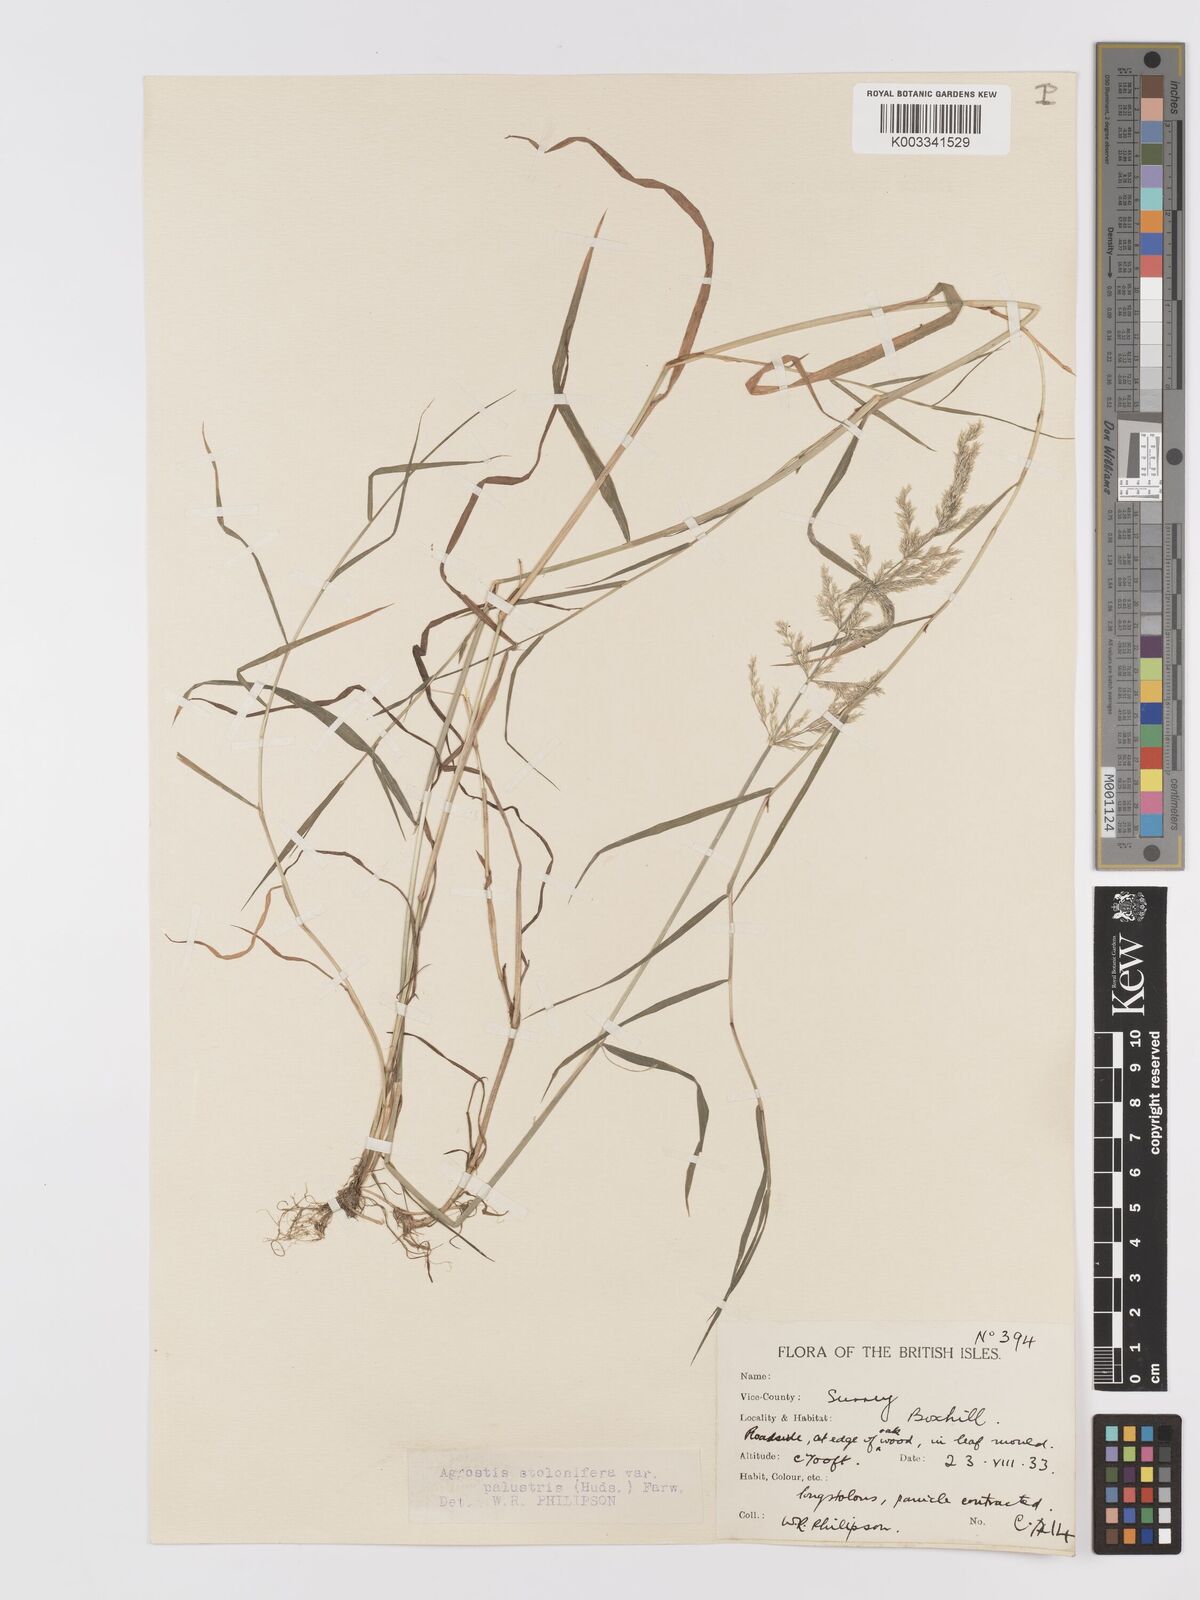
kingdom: Plantae
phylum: Tracheophyta
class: Liliopsida
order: Poales
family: Poaceae
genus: Agrostis
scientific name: Agrostis stolonifera
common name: Creeping bentgrass
